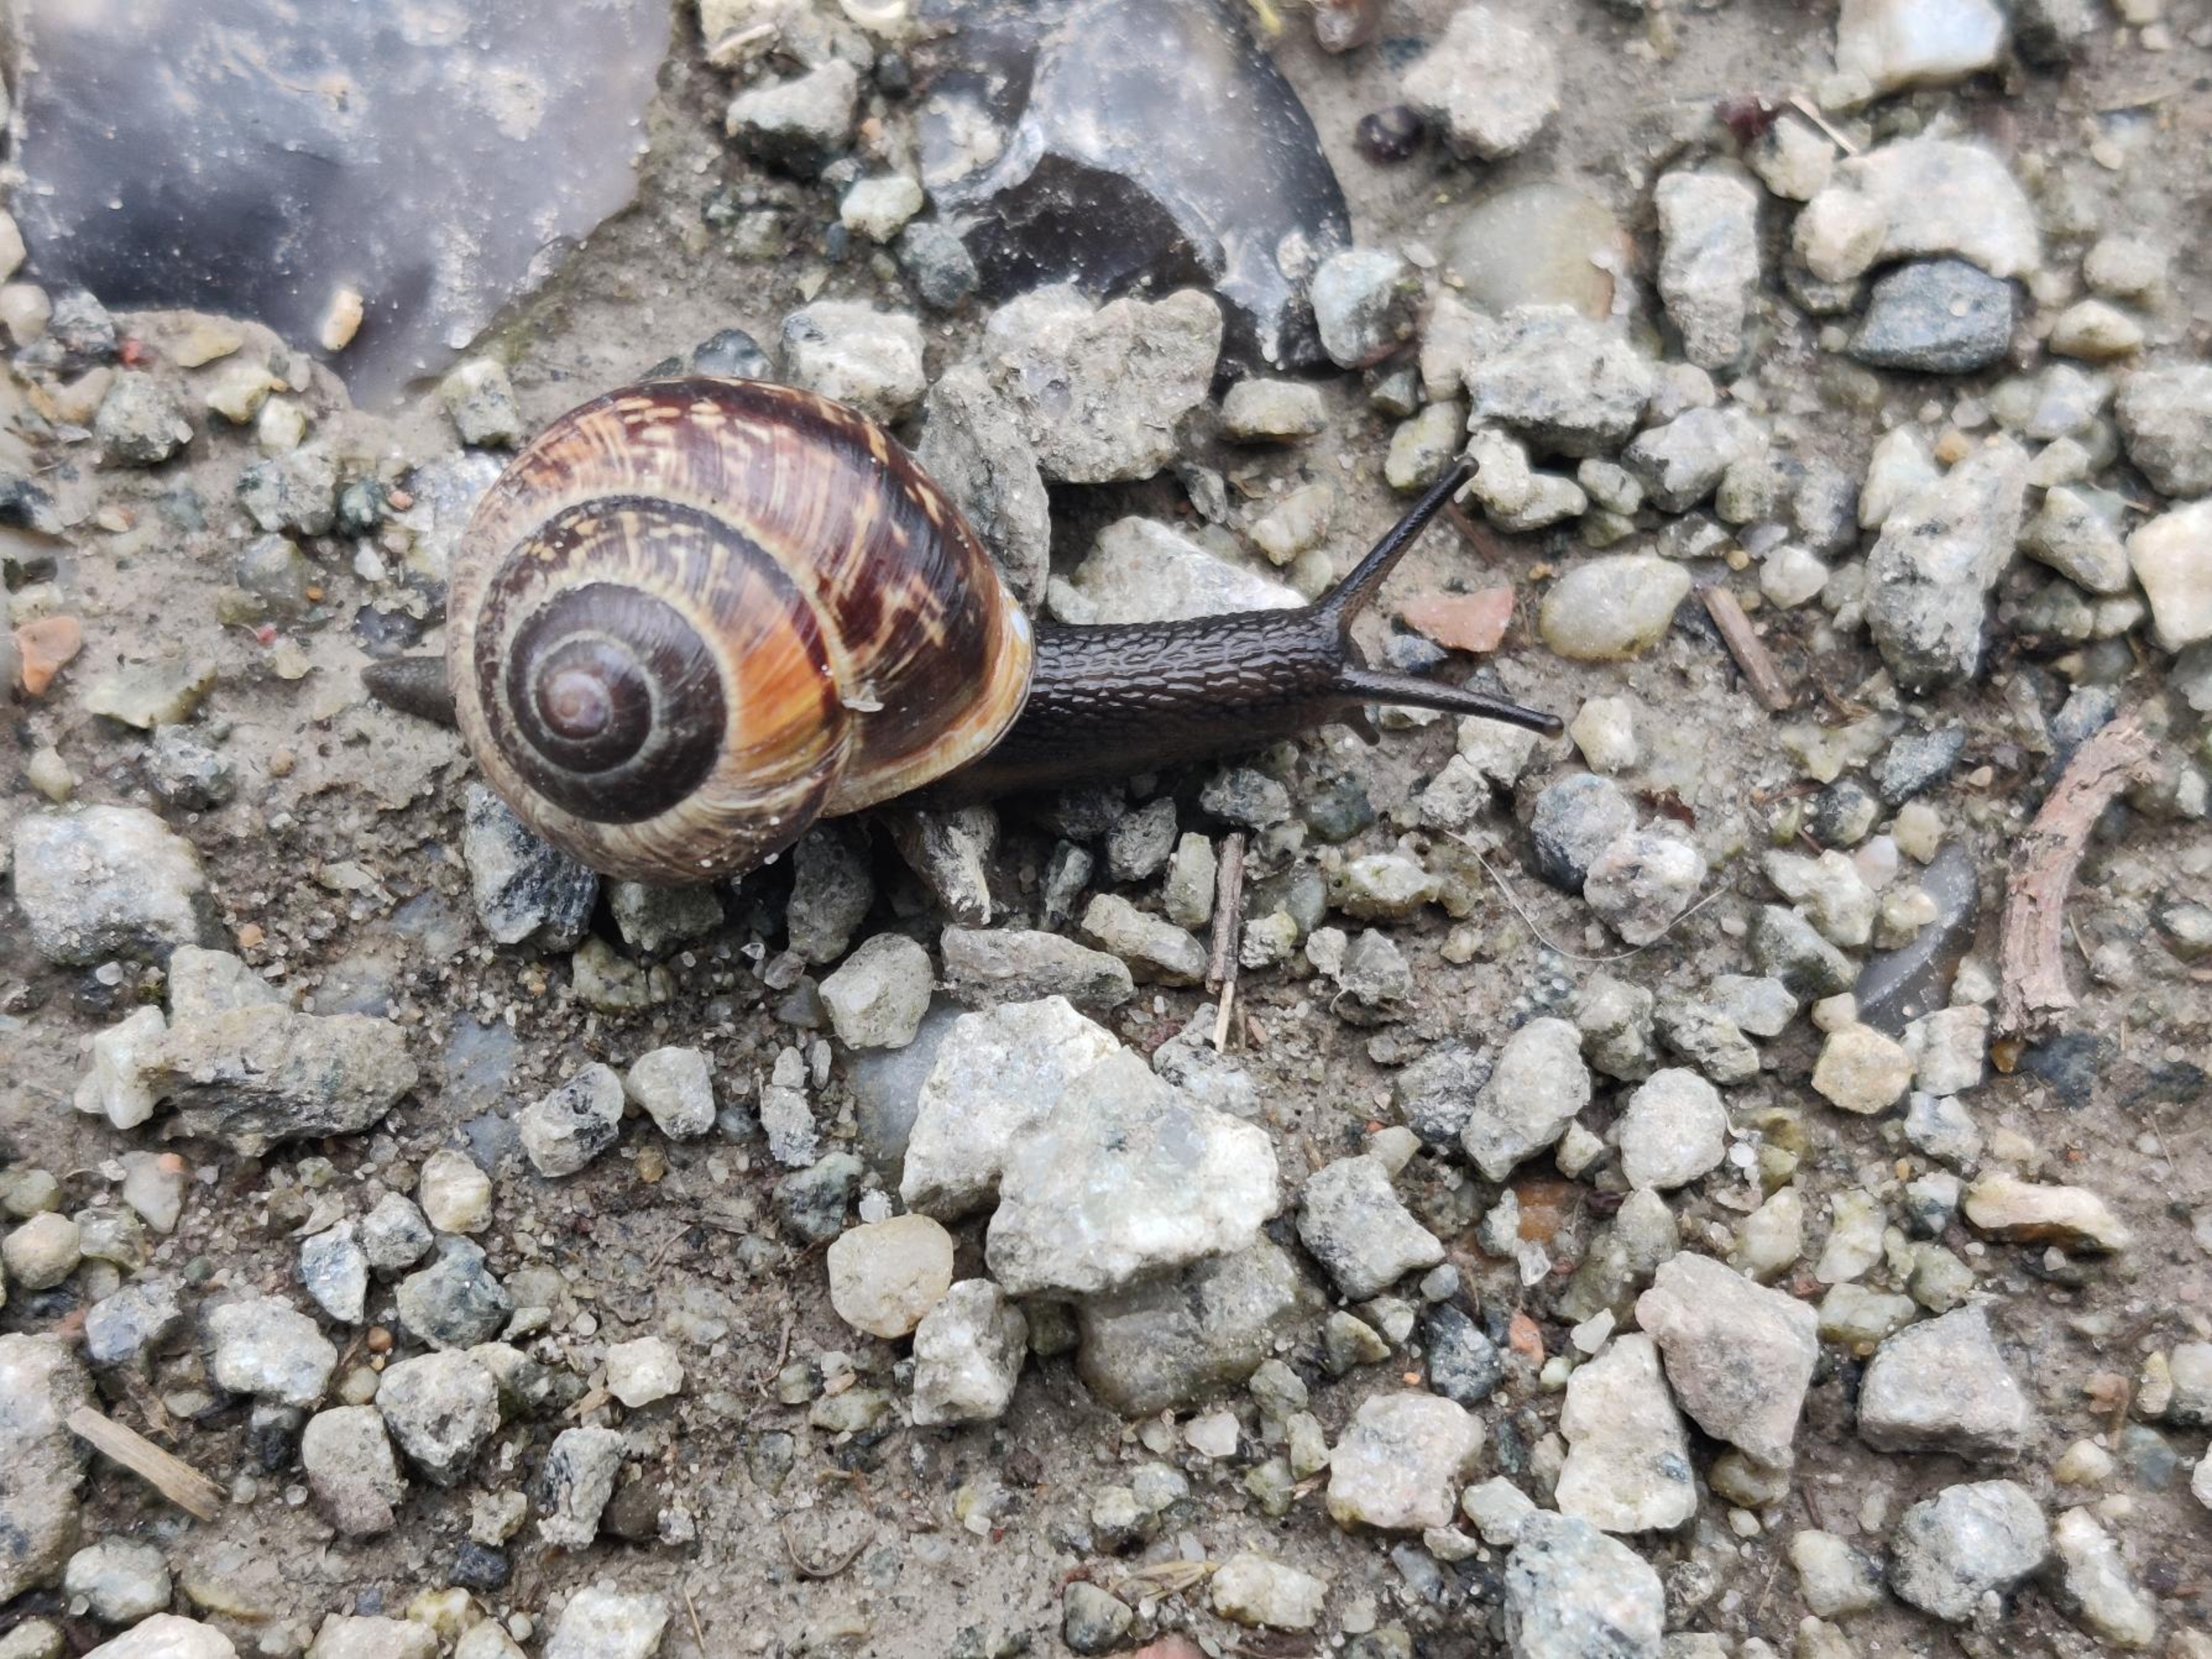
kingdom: Animalia
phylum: Mollusca
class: Gastropoda
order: Stylommatophora
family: Helicidae
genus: Arianta
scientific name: Arianta arbustorum
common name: Kratsnegl
